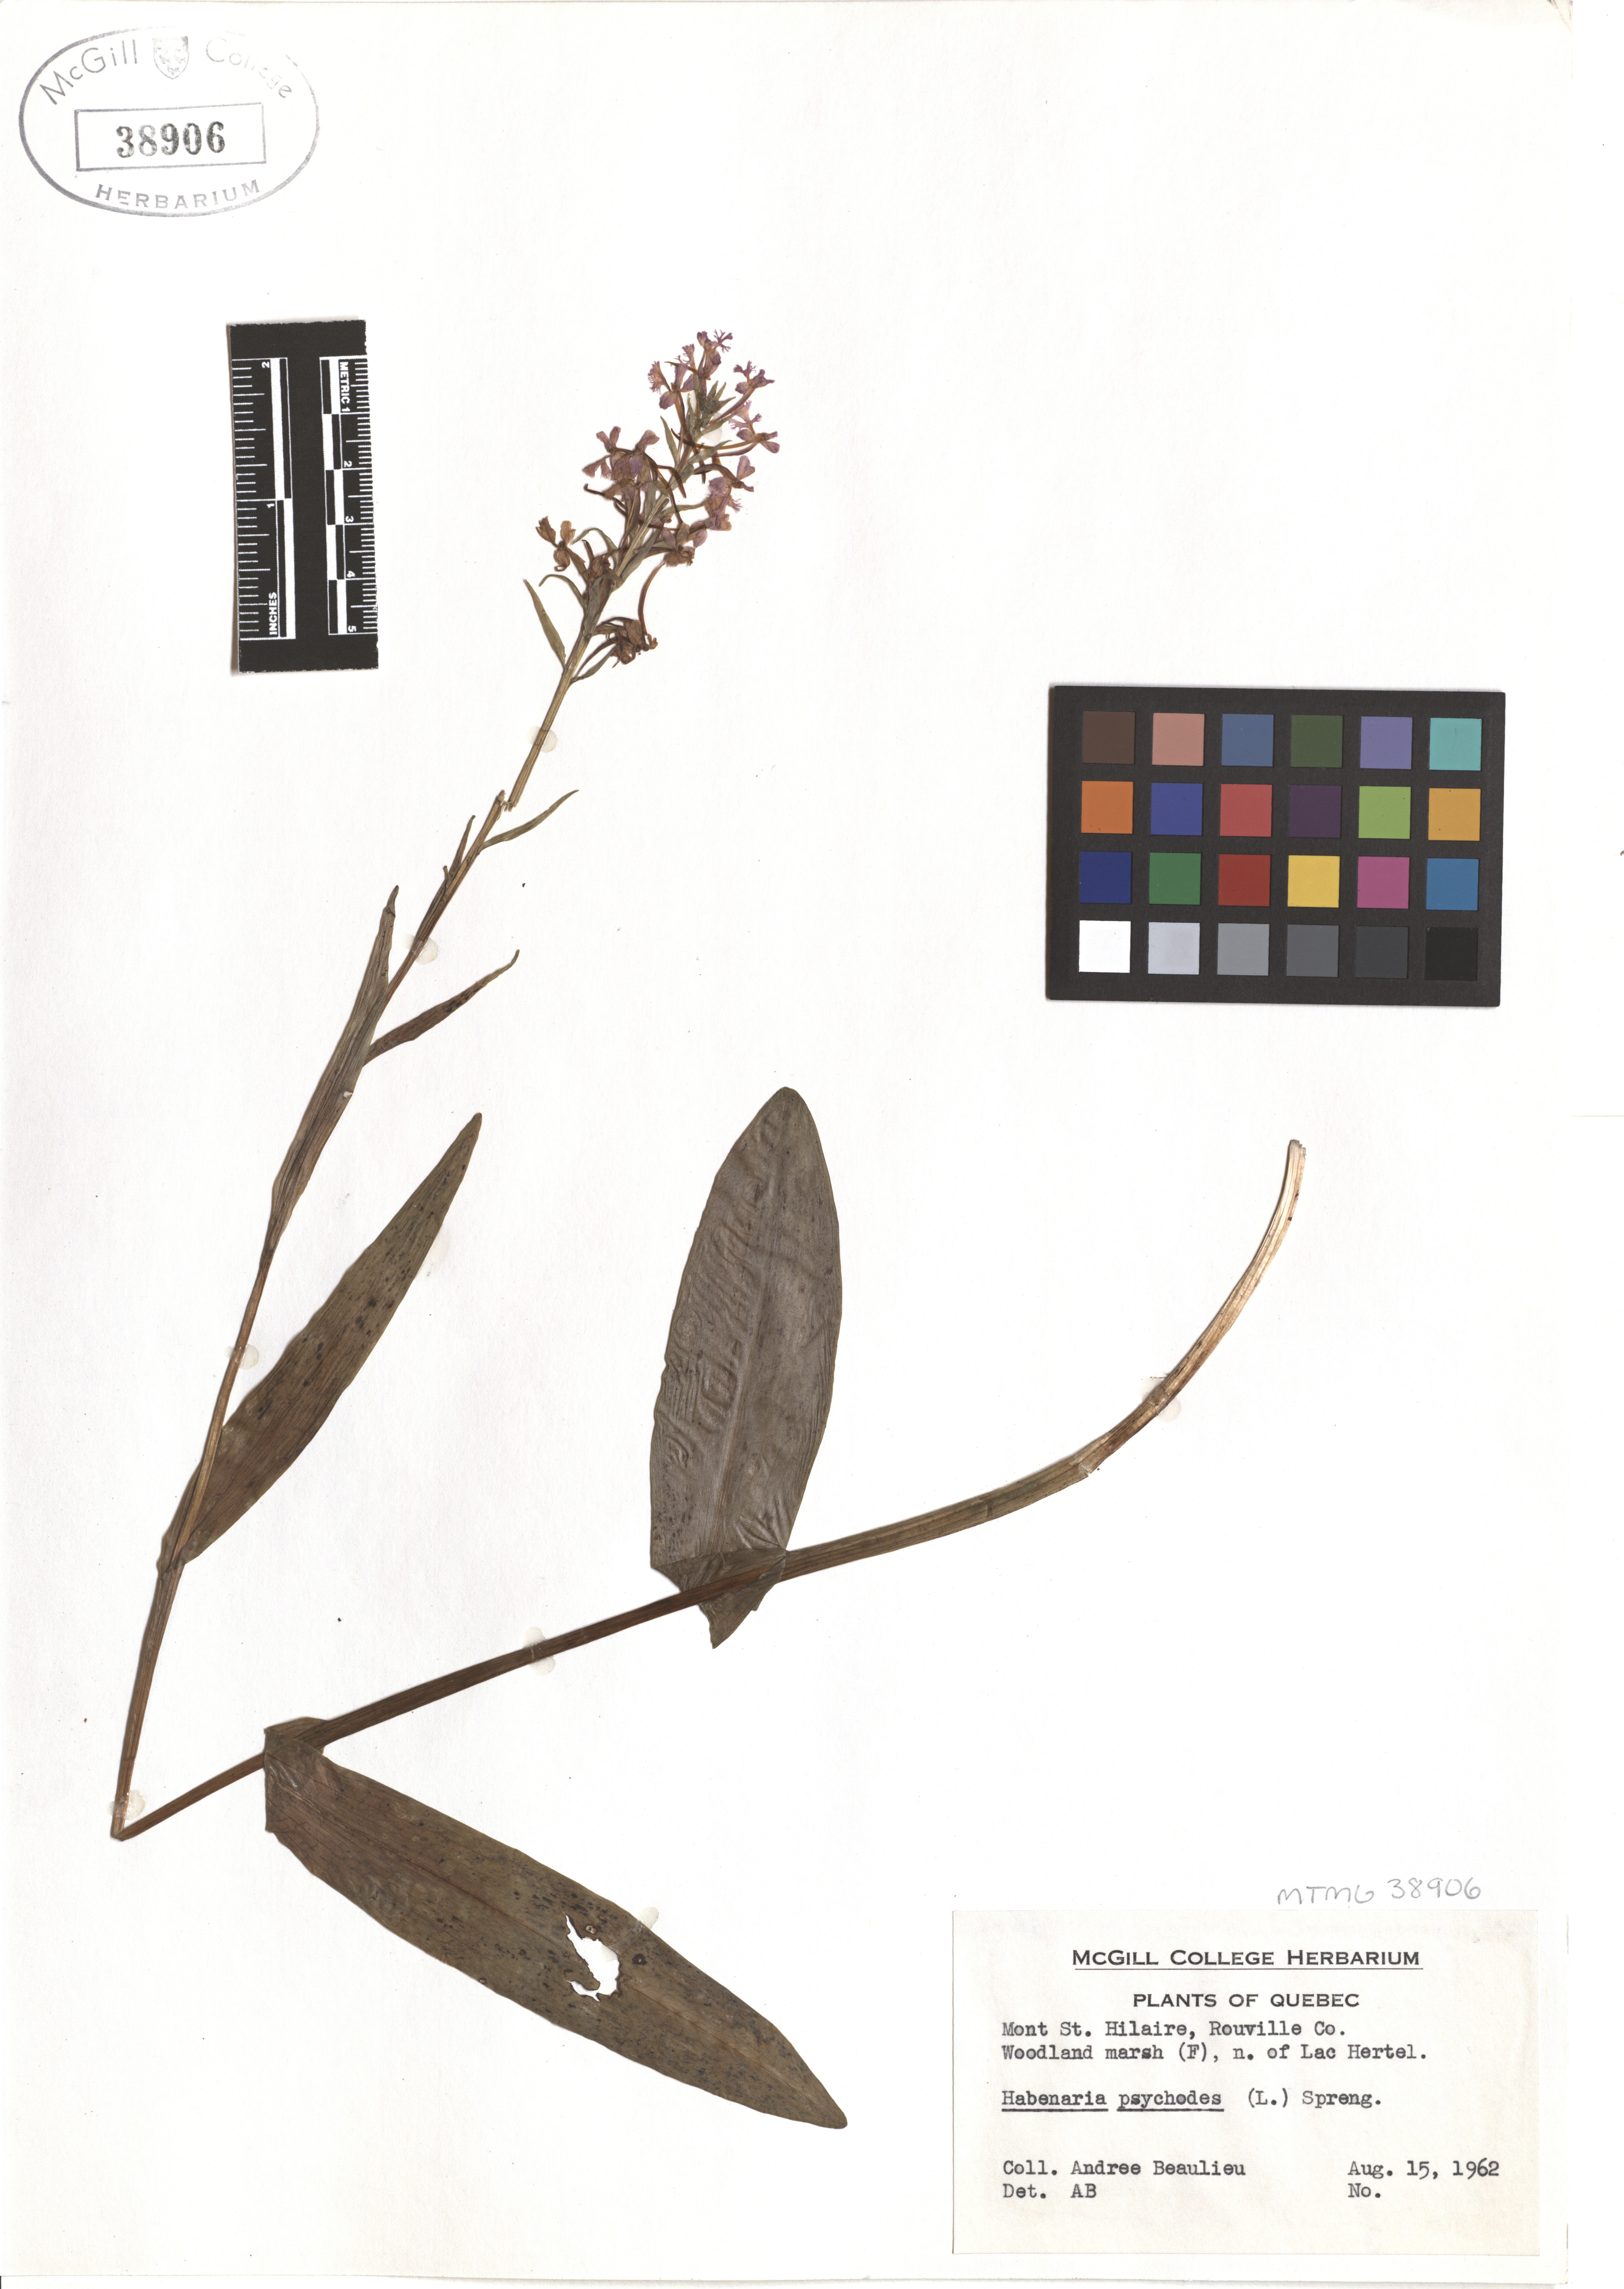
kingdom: Plantae
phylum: Tracheophyta
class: Liliopsida
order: Asparagales
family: Orchidaceae
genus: Platanthera
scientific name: Platanthera psycodes
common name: Lesser purple fringed orchid
